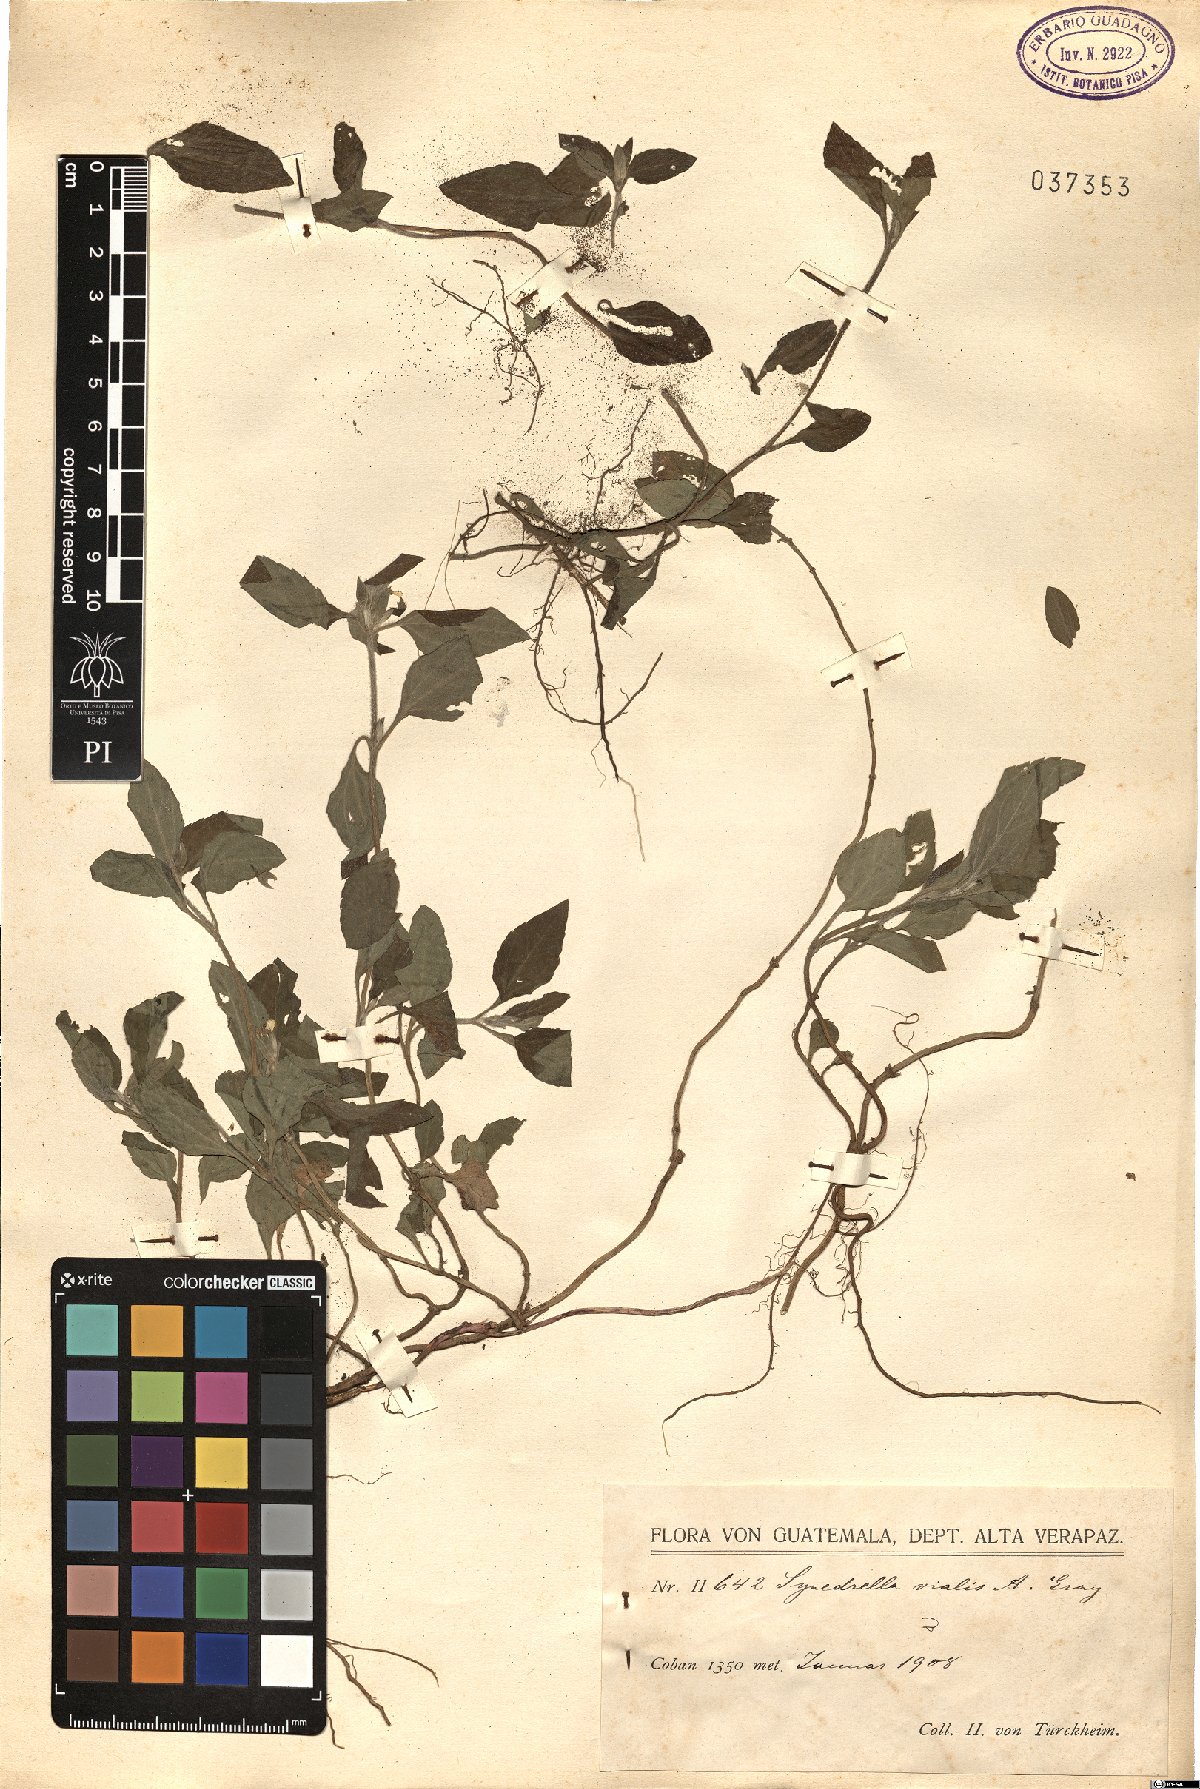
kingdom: Plantae
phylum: Tracheophyta
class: Magnoliopsida
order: Asterales
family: Asteraceae
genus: Calyptocarpus
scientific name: Calyptocarpus vialis
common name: Straggler daisy
